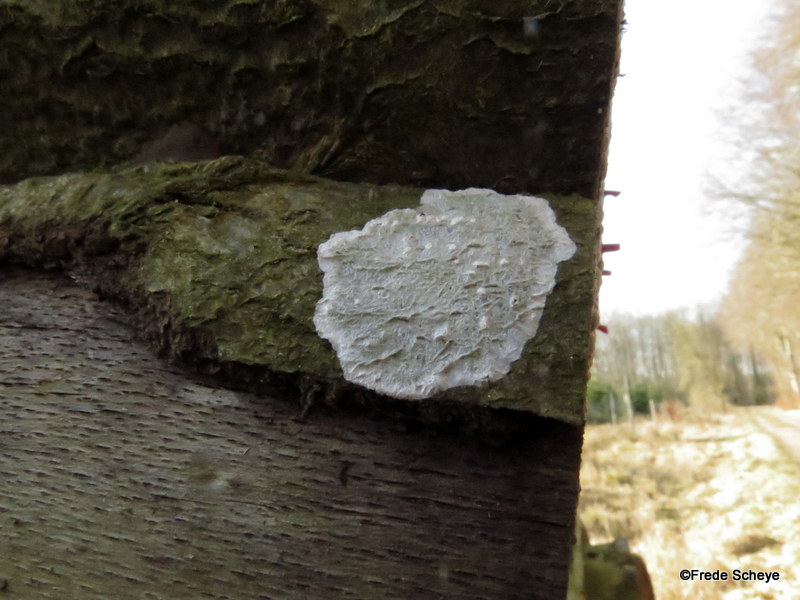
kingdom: Fungi
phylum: Ascomycota
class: Lecanoromycetes
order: Ostropales
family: Phlyctidaceae
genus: Phlyctis
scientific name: Phlyctis argena
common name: almindelig sølvlav
